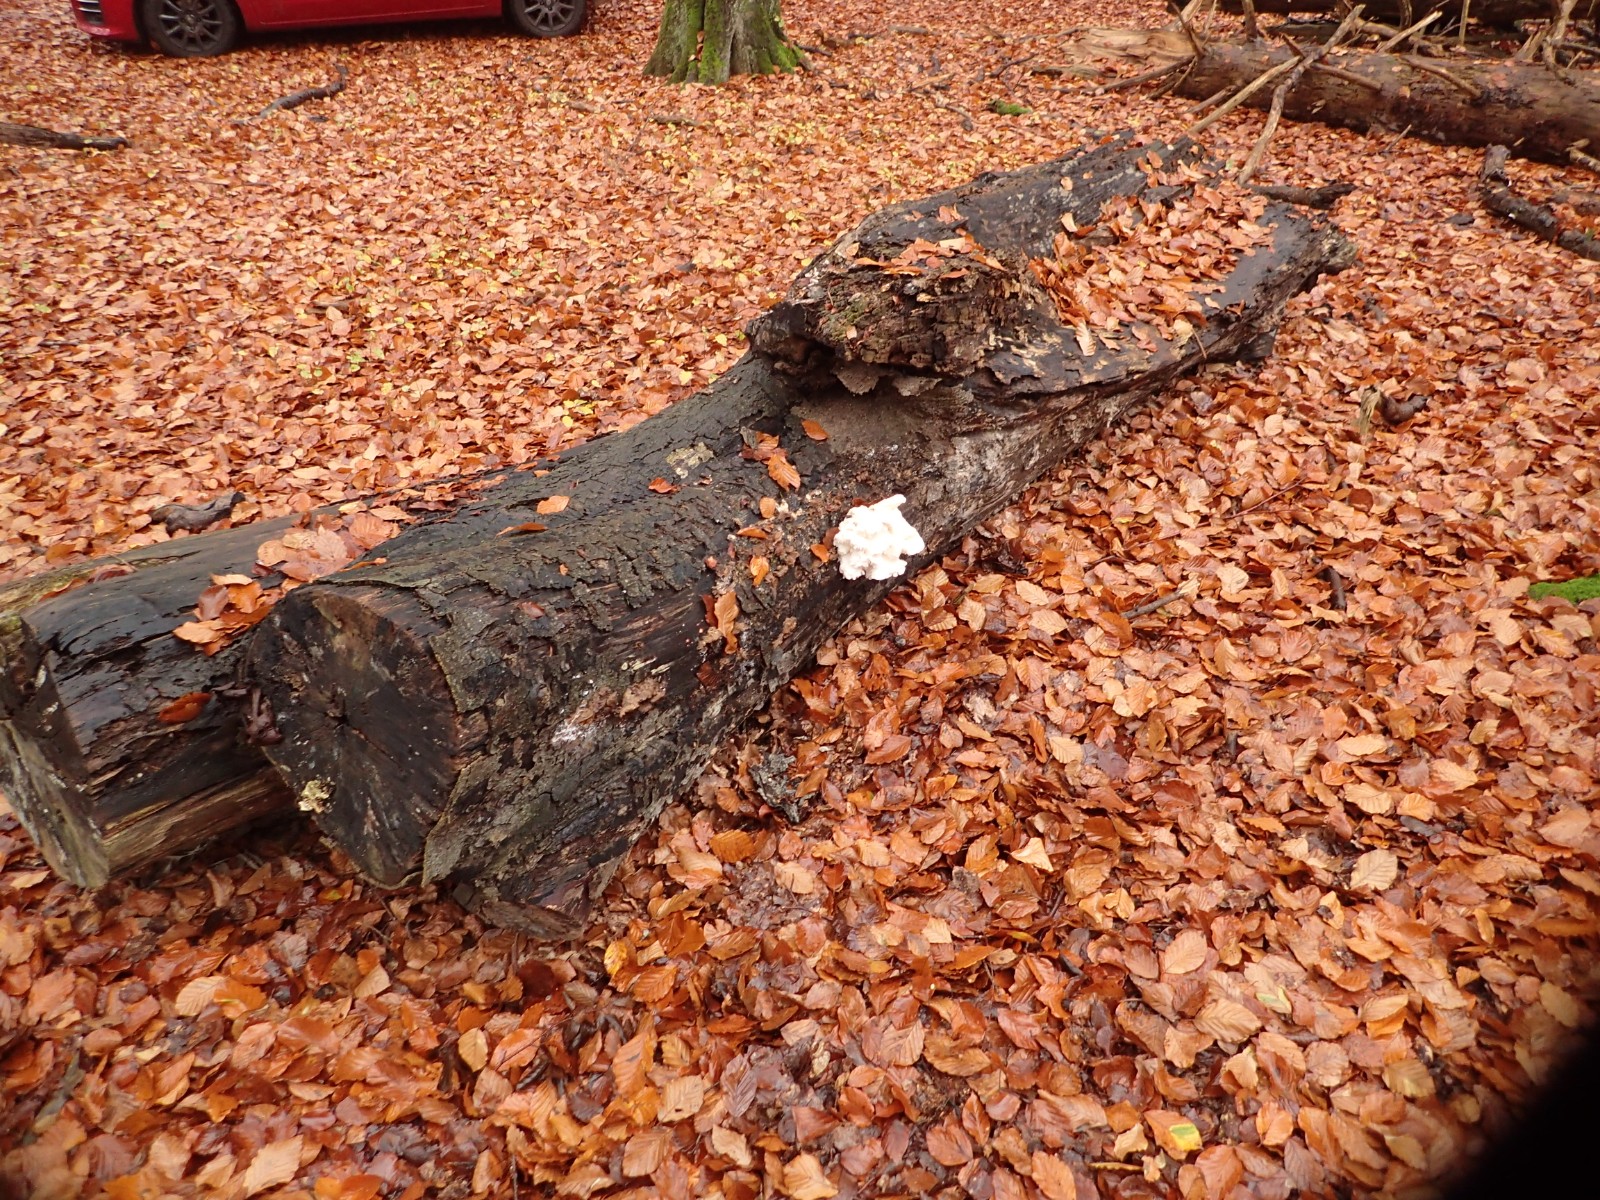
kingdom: Fungi
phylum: Basidiomycota
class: Agaricomycetes
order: Russulales
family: Hericiaceae
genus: Hericium
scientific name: Hericium cirrhatum
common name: børstepigsvamp
